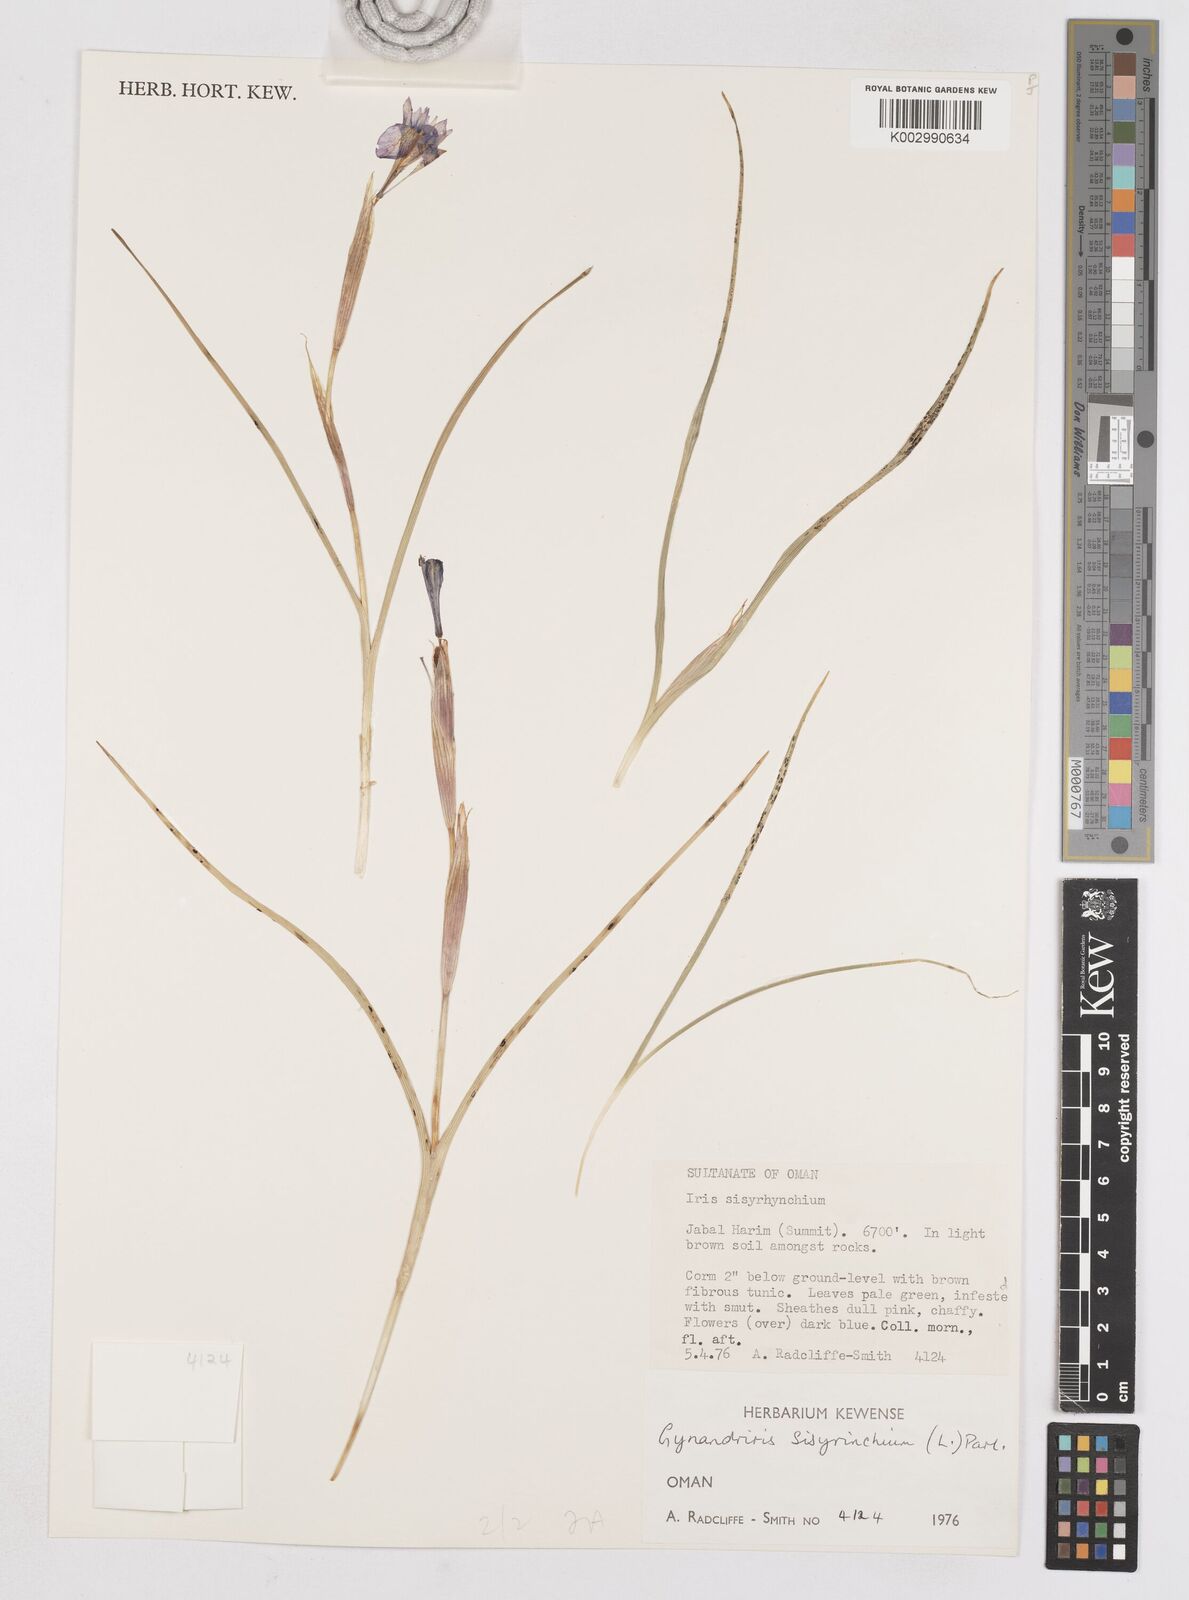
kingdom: Plantae
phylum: Tracheophyta
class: Liliopsida
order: Asparagales
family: Iridaceae
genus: Moraea
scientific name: Moraea sisyrinchium
